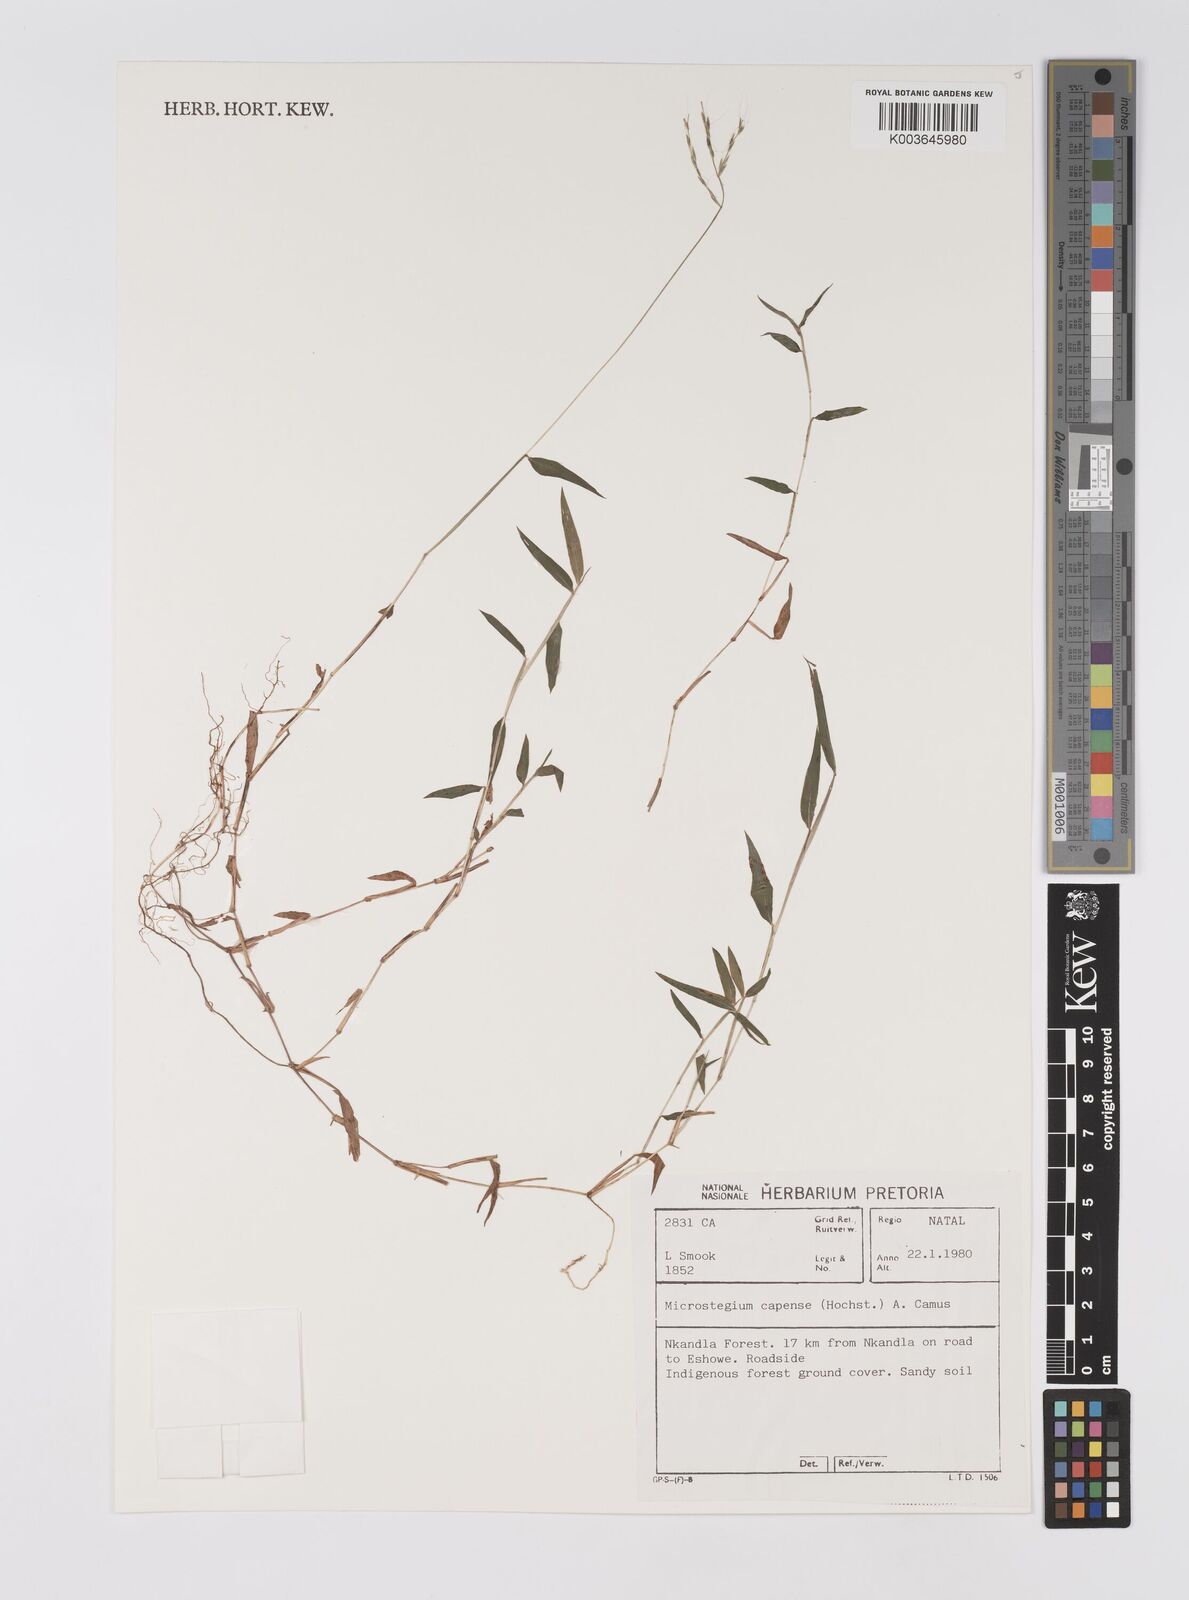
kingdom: Plantae
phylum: Tracheophyta
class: Liliopsida
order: Poales
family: Poaceae
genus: Microstegium
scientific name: Microstegium nudum
